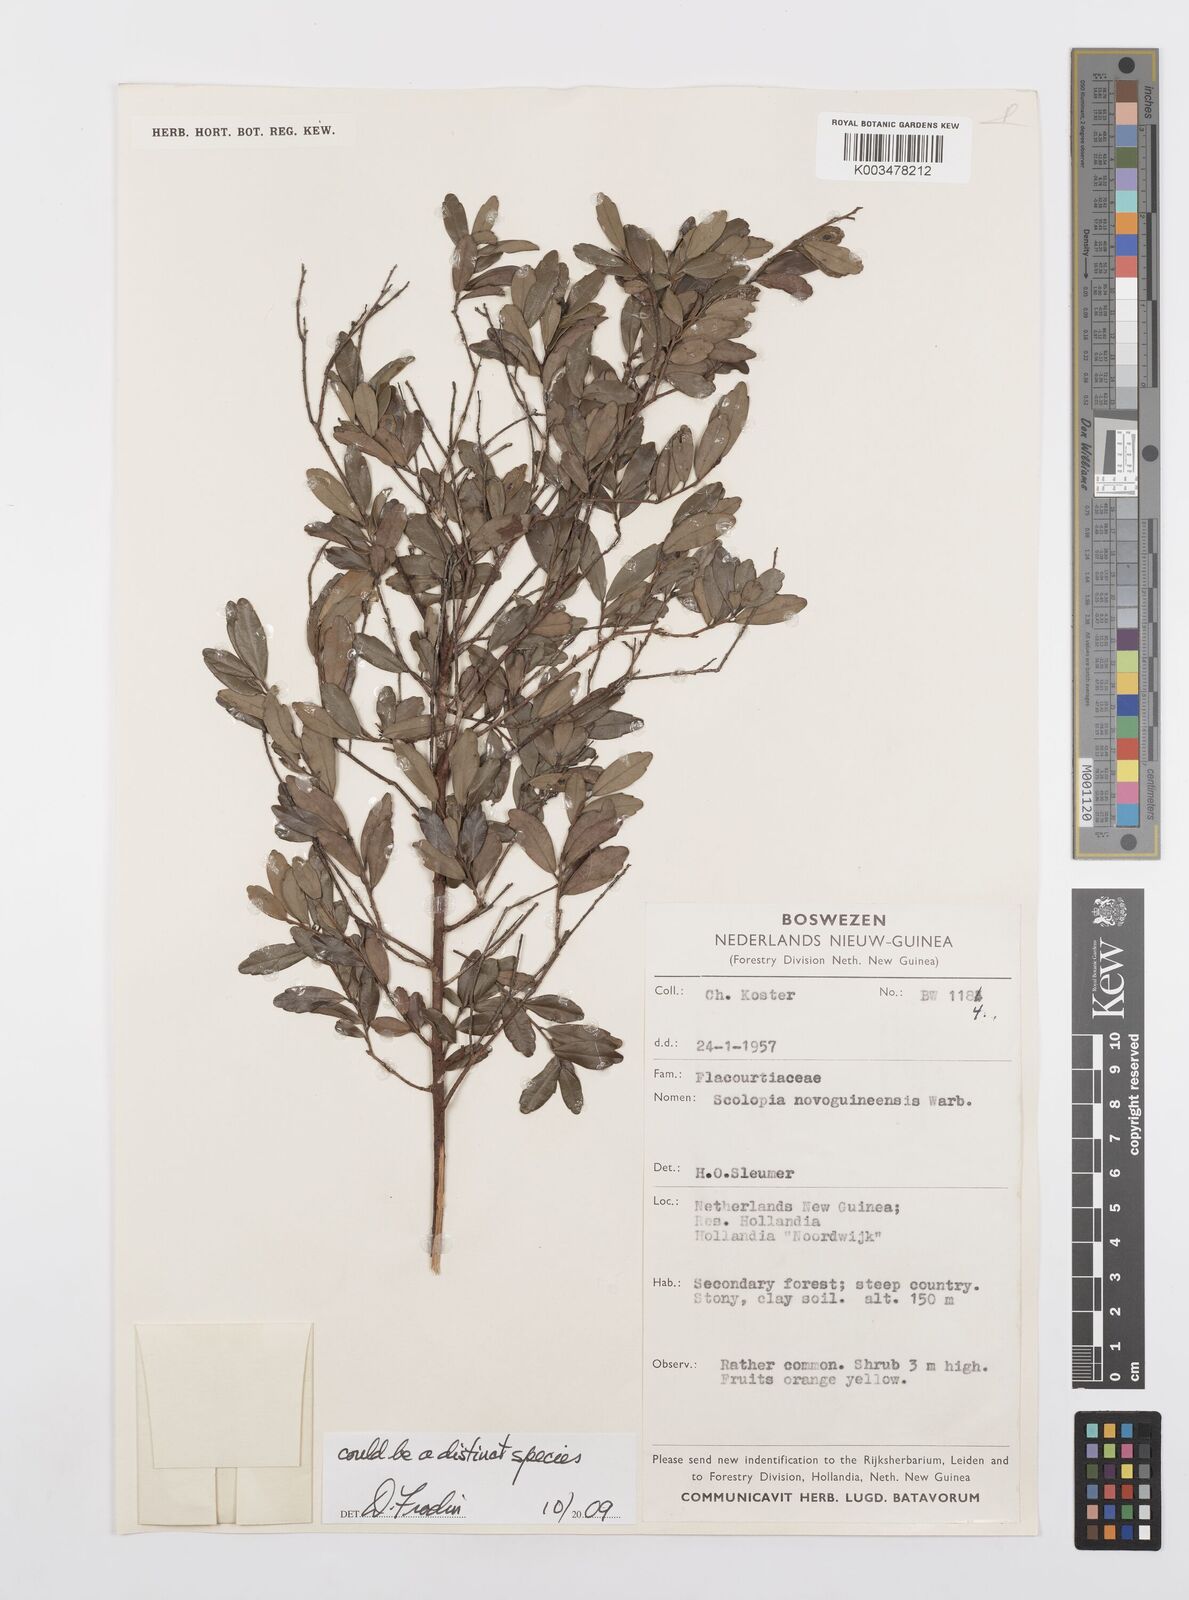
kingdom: Plantae
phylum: Tracheophyta
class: Magnoliopsida
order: Malpighiales
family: Salicaceae
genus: Scolopia
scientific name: Scolopia
